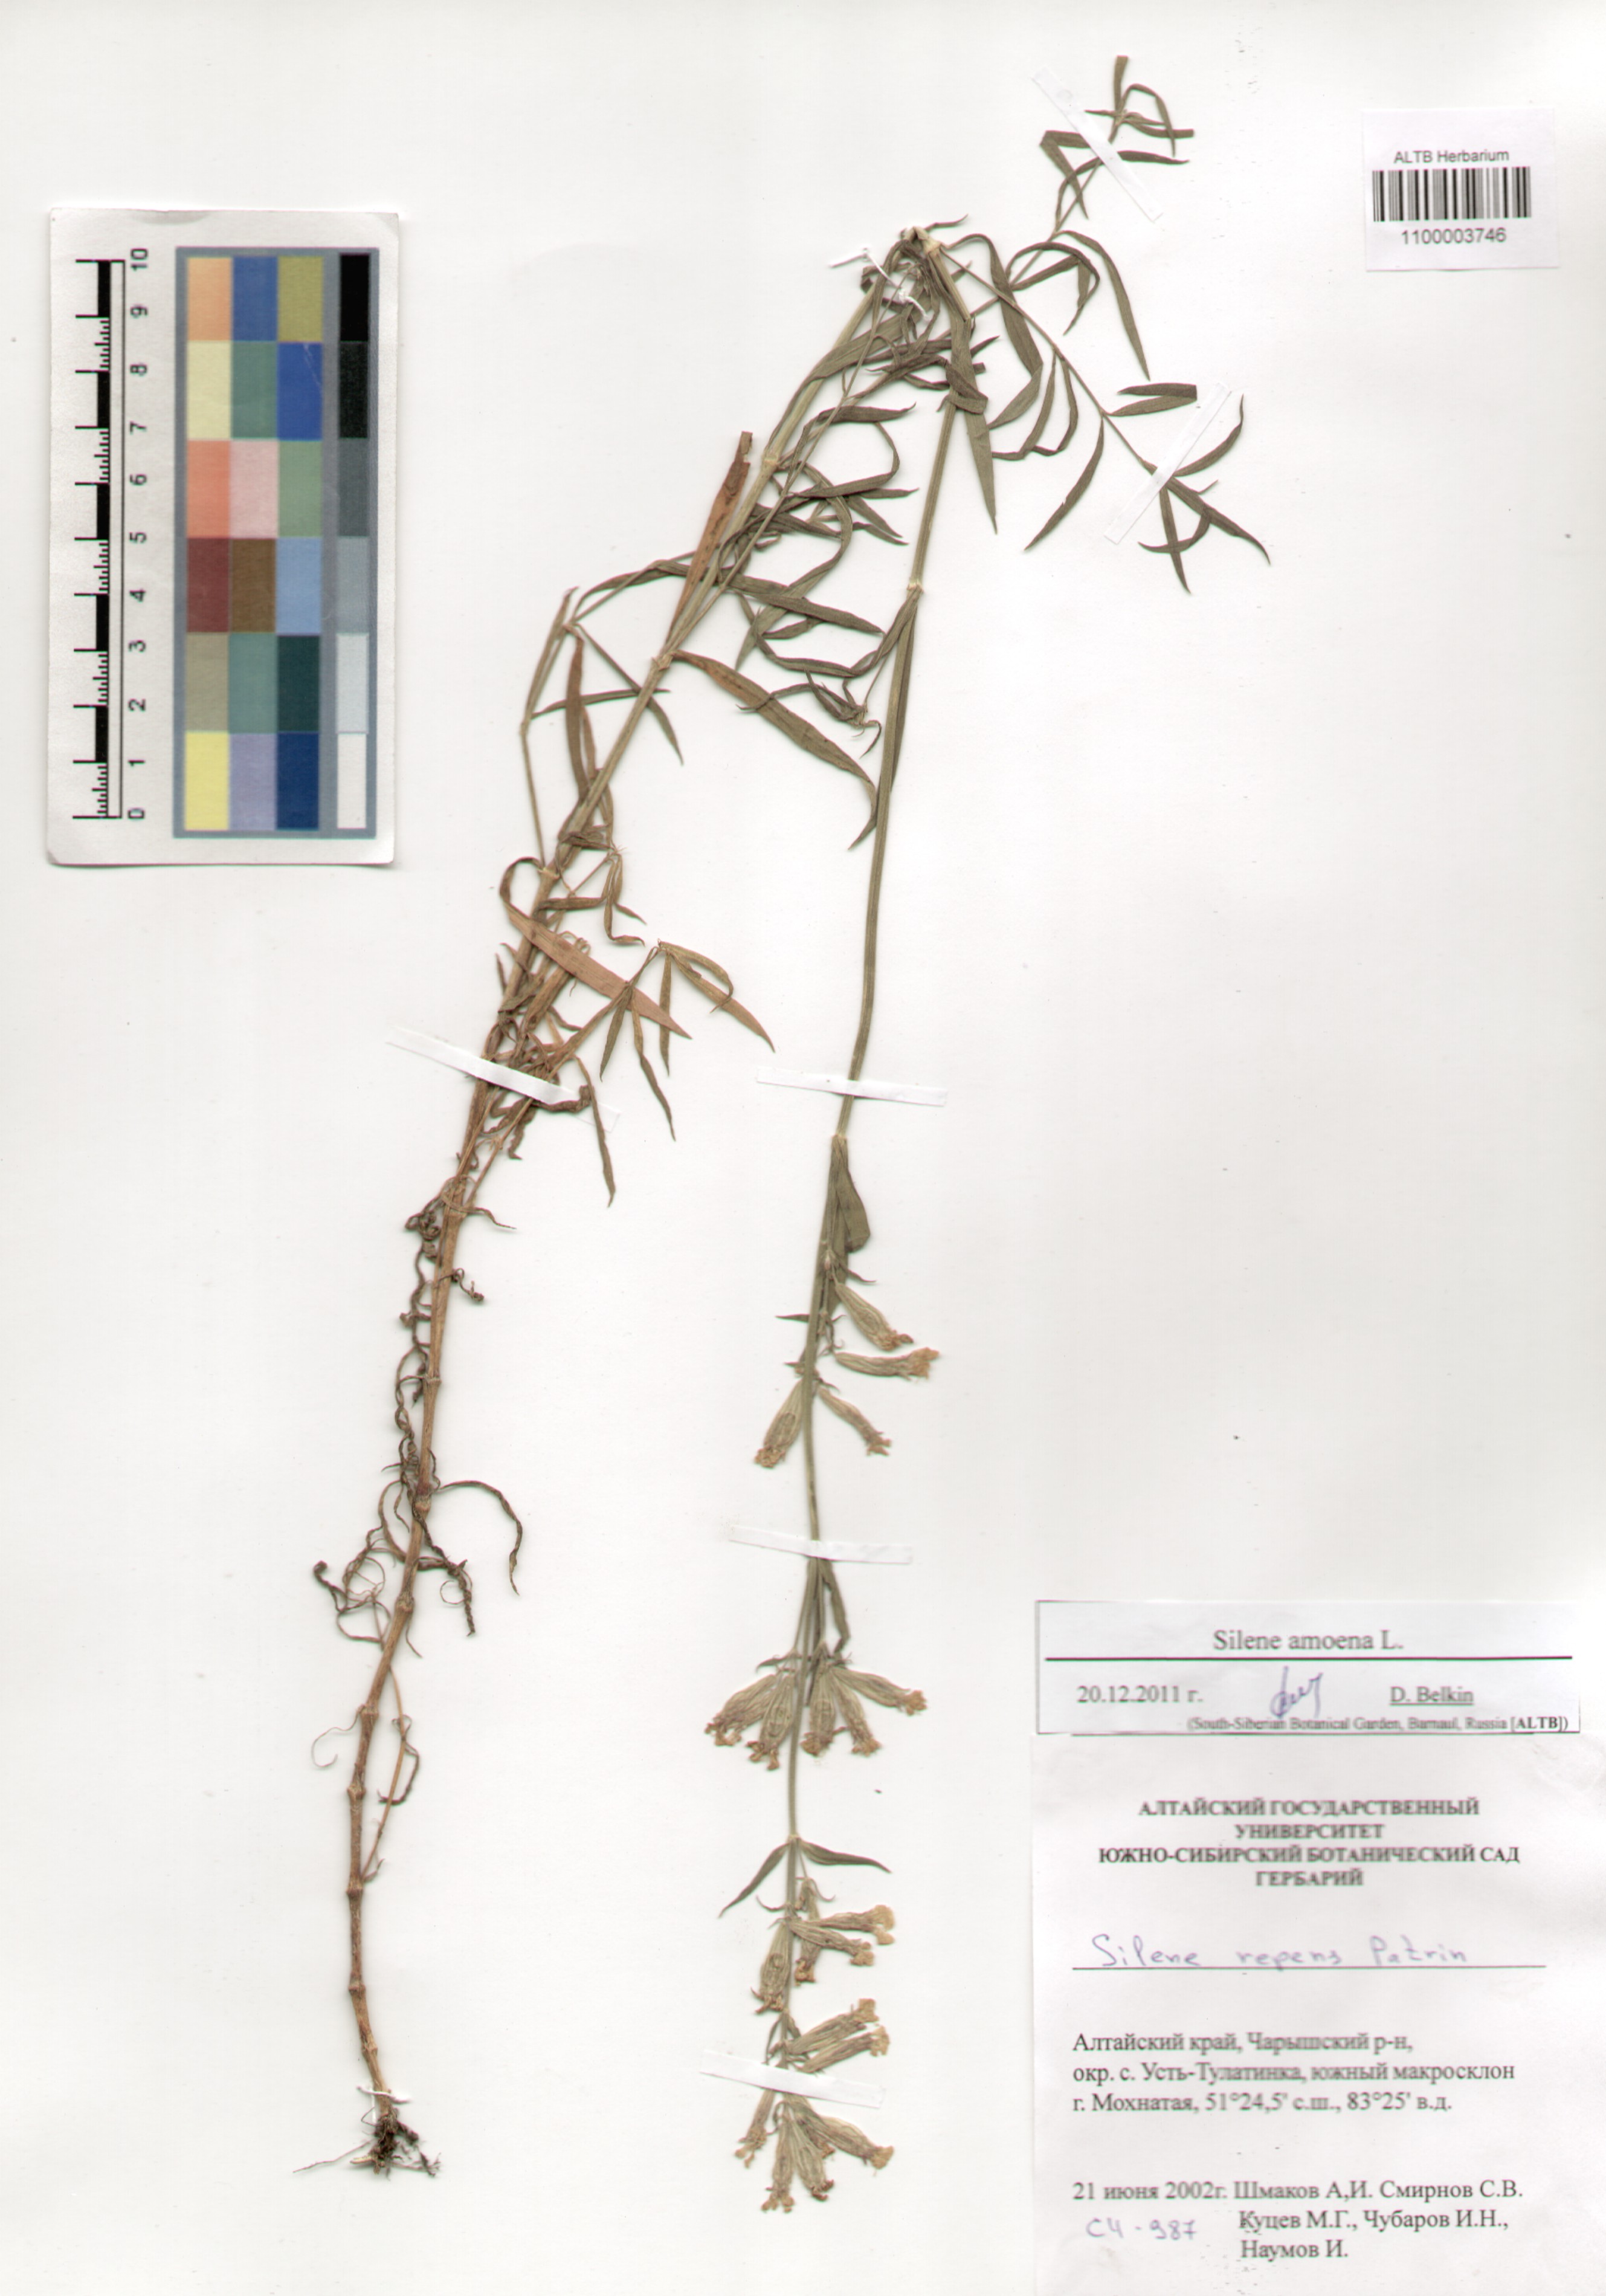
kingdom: Plantae
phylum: Tracheophyta
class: Magnoliopsida
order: Caryophyllales
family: Caryophyllaceae
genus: Silene
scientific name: Silene amoena
